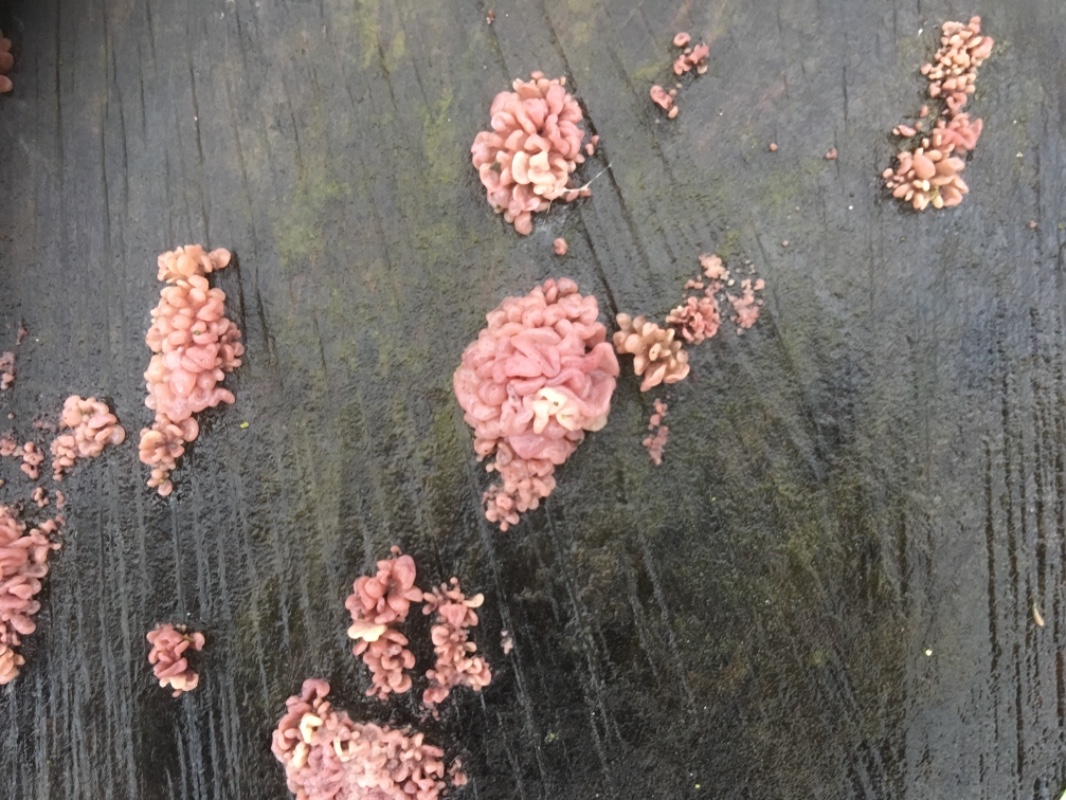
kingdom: Fungi
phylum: Ascomycota
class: Leotiomycetes
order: Helotiales
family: Gelatinodiscaceae
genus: Ascocoryne
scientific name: Ascocoryne sarcoides
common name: rødlilla sejskive
